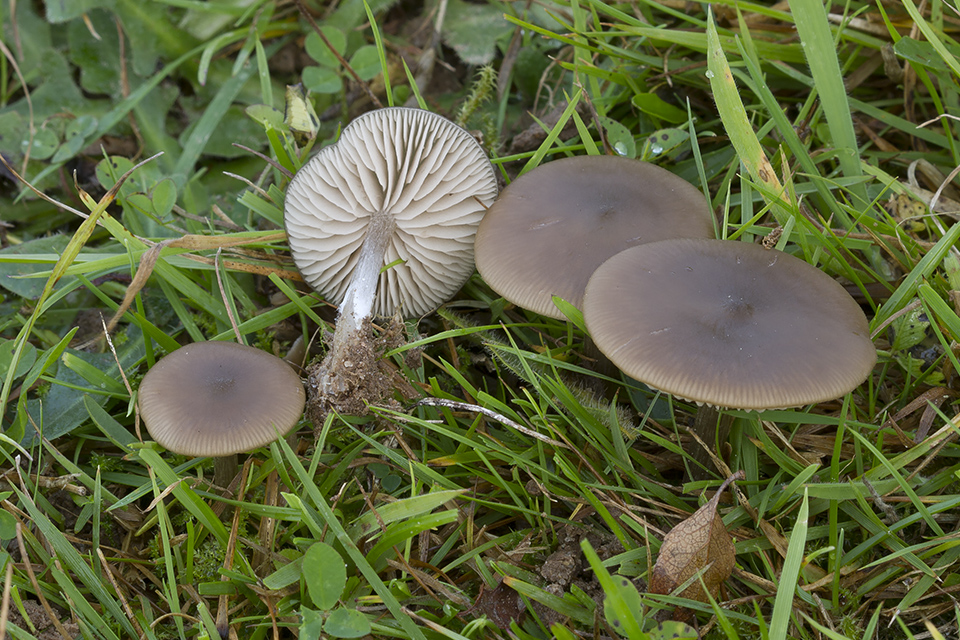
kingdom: Fungi
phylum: Basidiomycota
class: Agaricomycetes
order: Agaricales
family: Entolomataceae
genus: Entoloma
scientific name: Entoloma sericeum
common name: silkeglinsende rødblad
